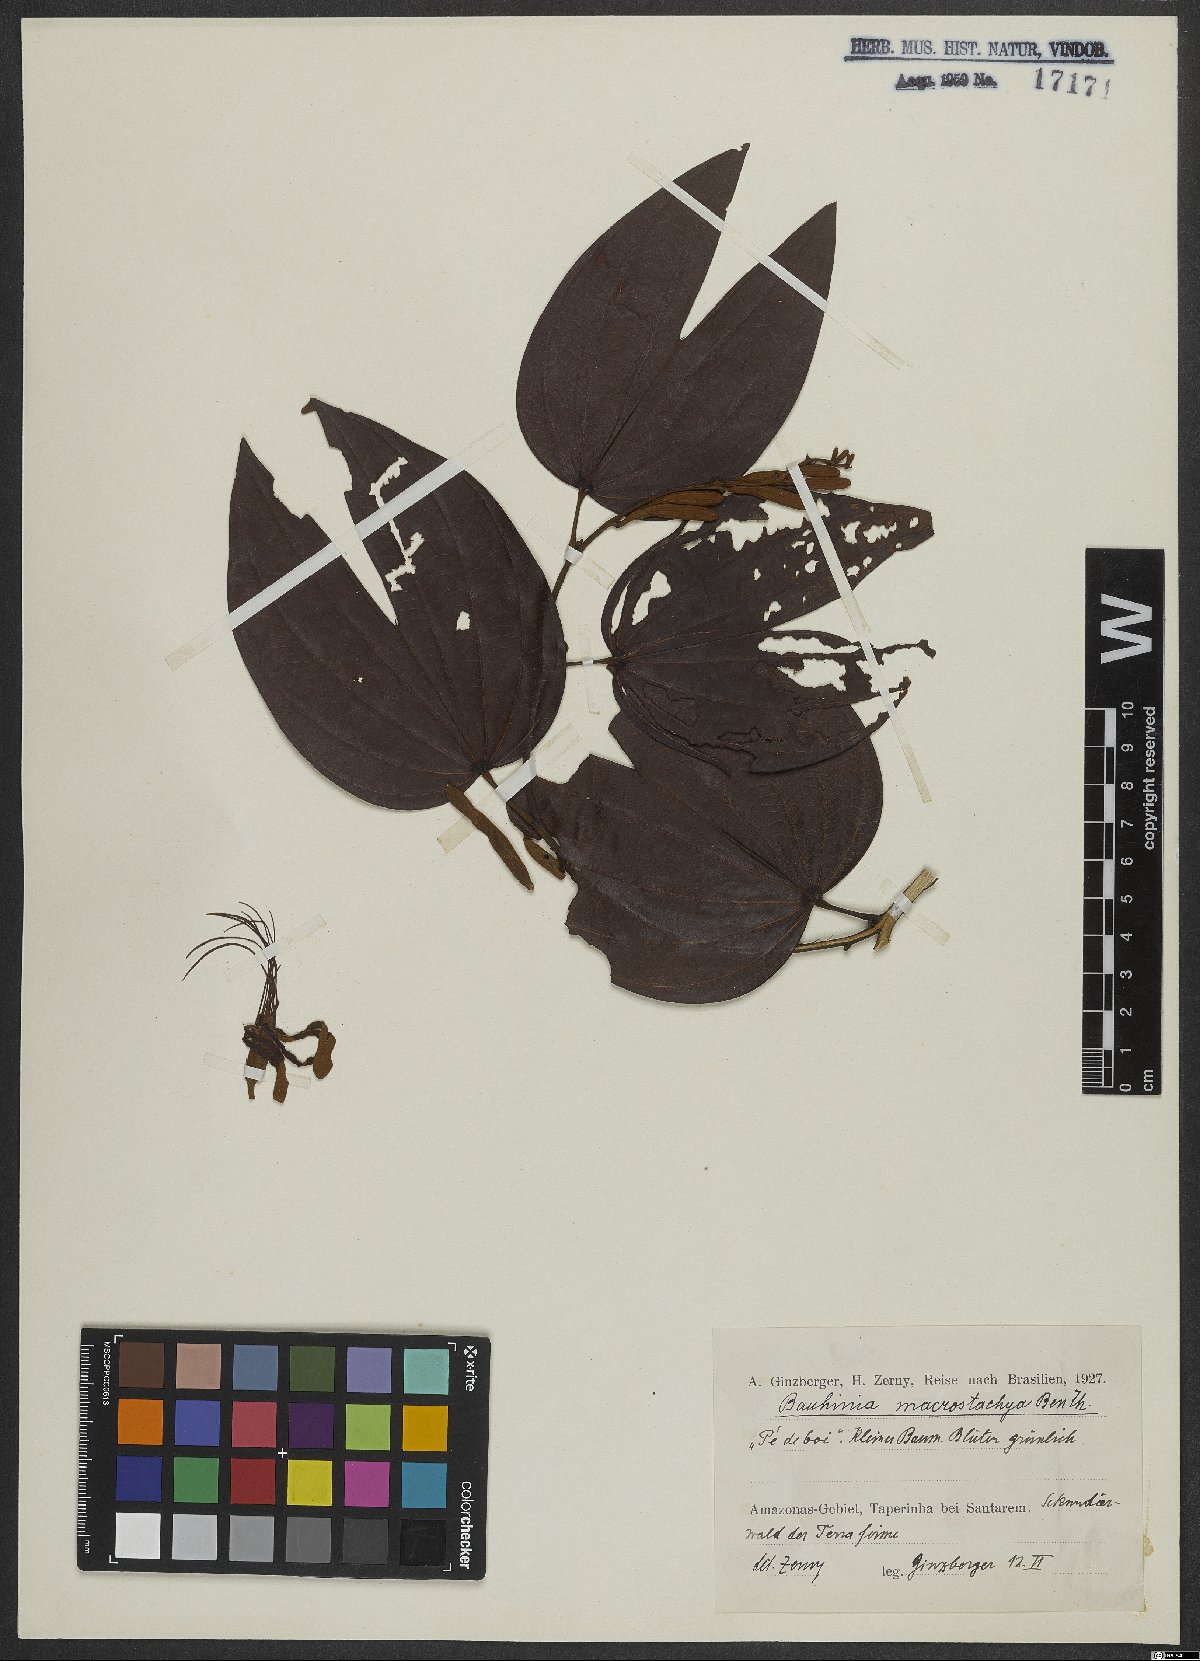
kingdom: Plantae
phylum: Tracheophyta
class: Magnoliopsida
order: Fabales
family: Fabaceae
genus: Bauhinia
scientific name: Bauhinia ungulata
